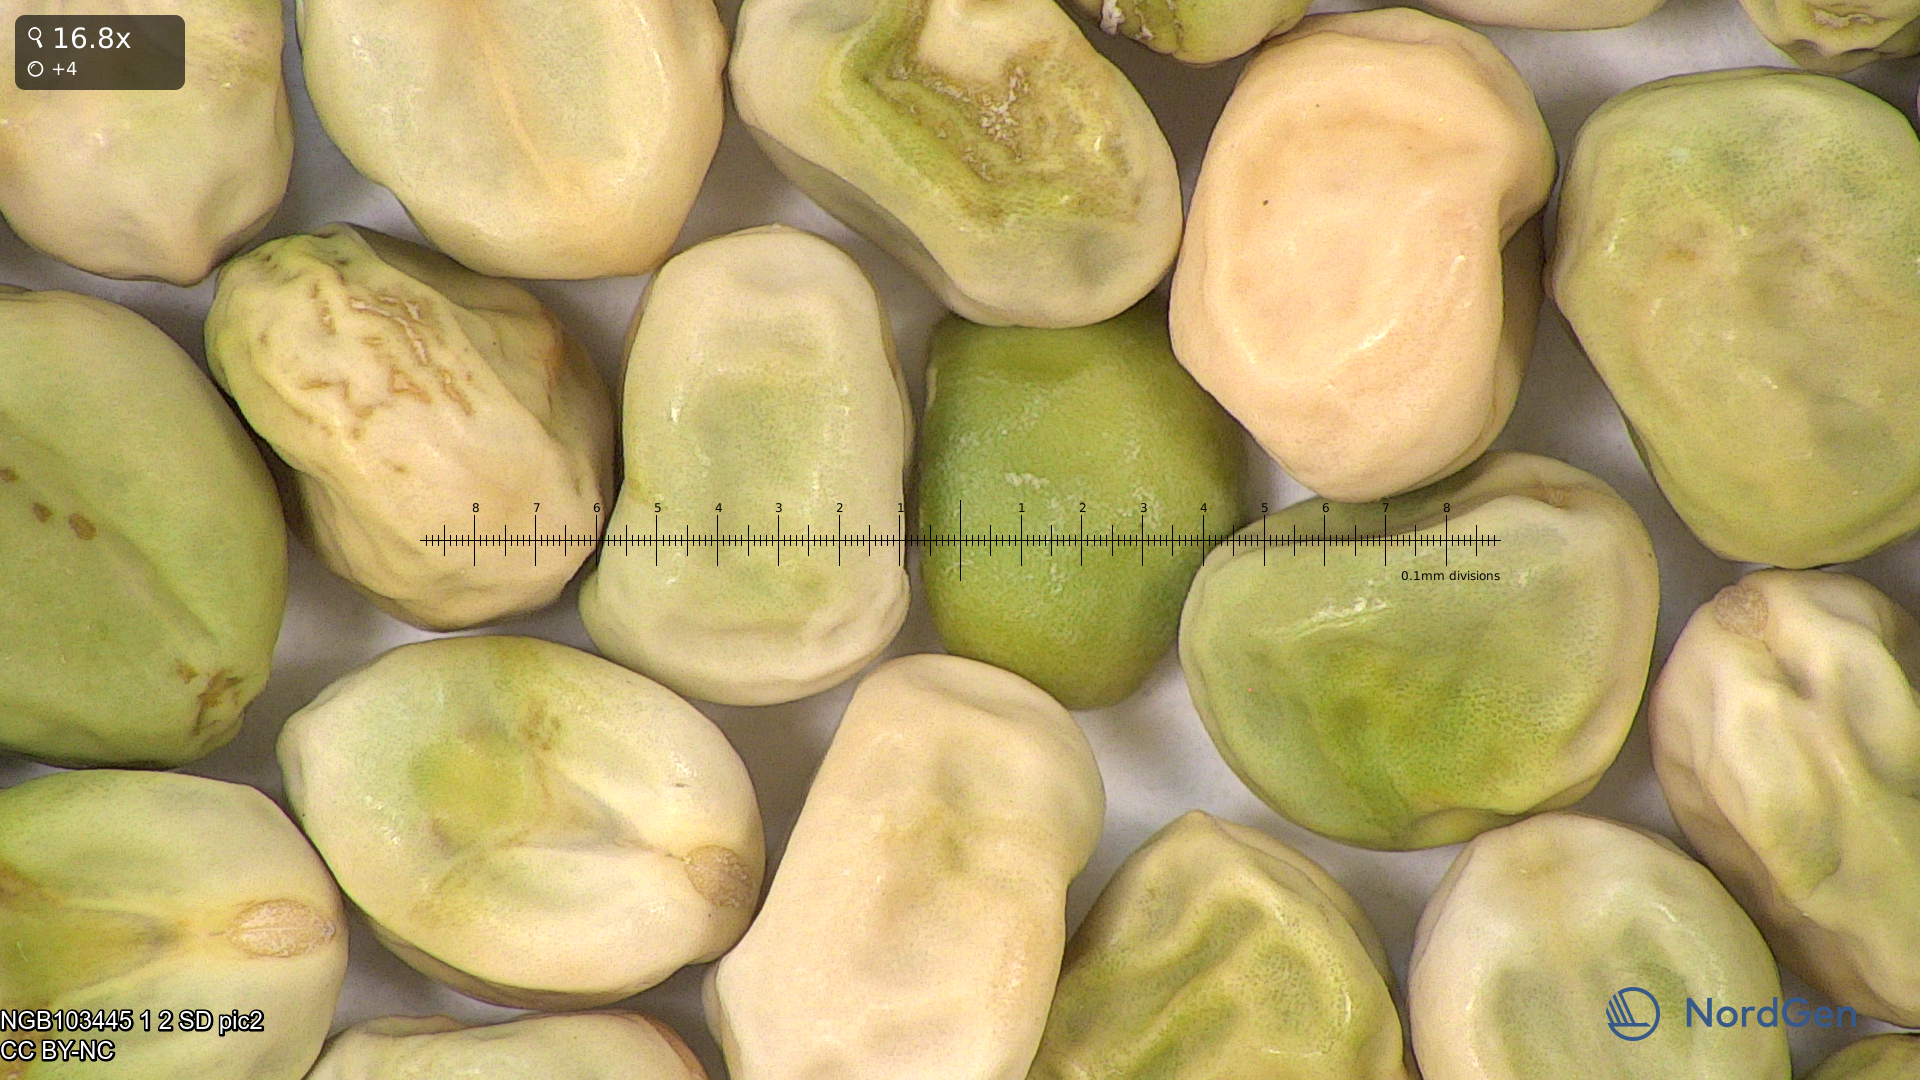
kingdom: Plantae
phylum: Tracheophyta
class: Magnoliopsida
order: Fabales
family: Fabaceae
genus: Lathyrus
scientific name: Lathyrus oleraceus
